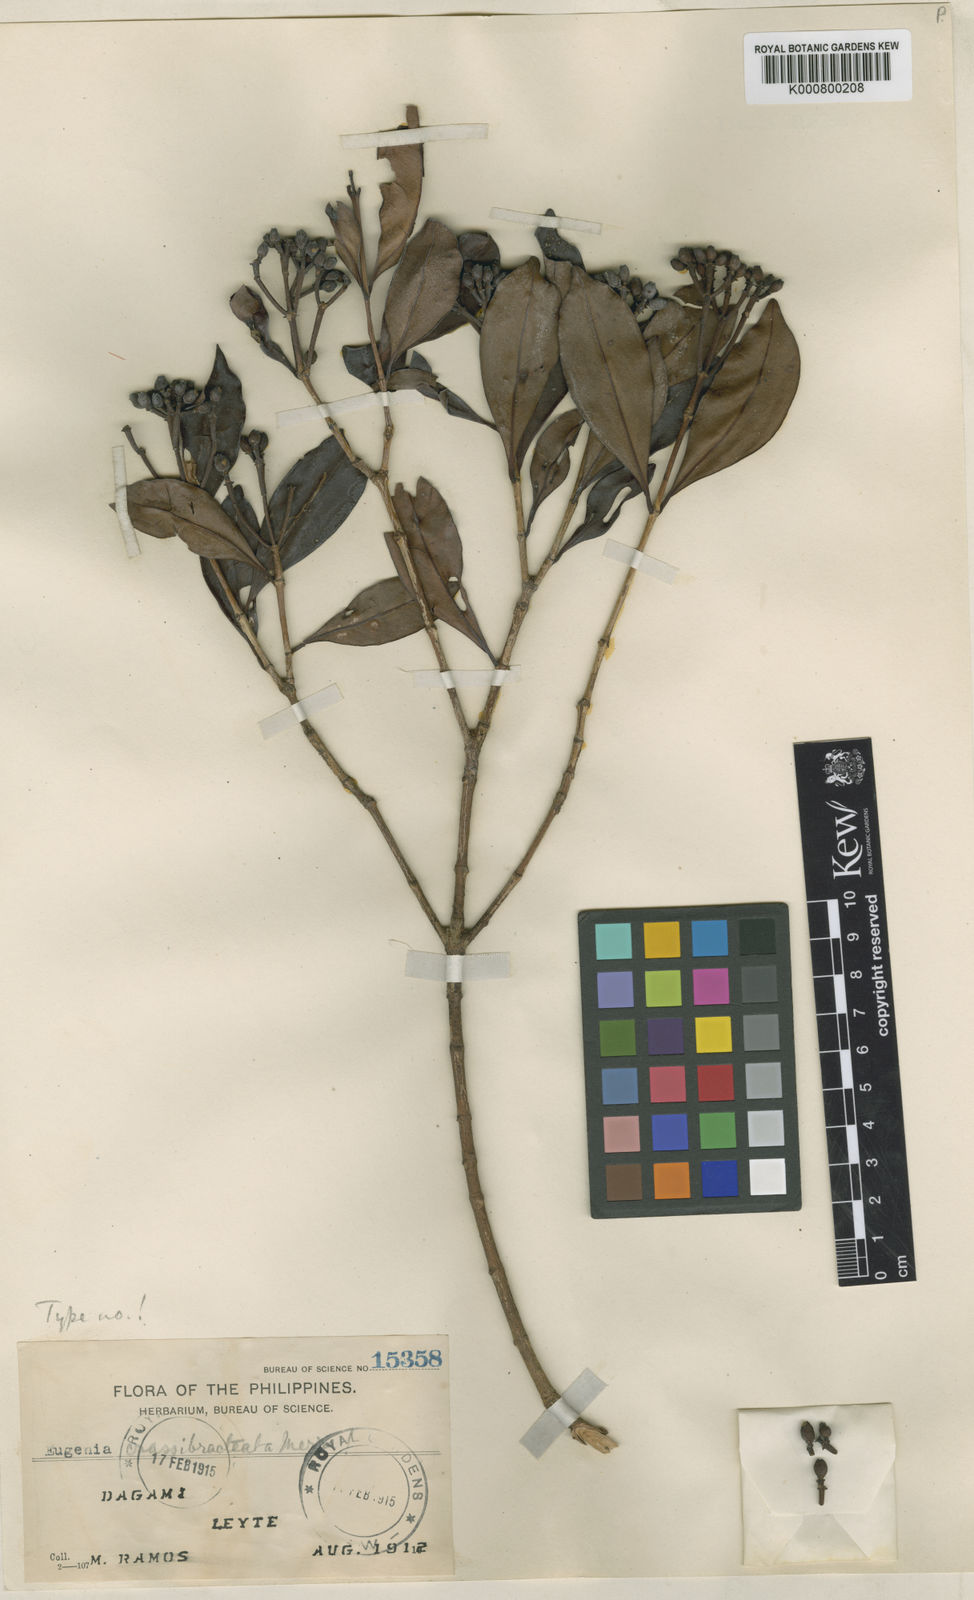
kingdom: Plantae
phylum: Tracheophyta
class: Magnoliopsida
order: Myrtales
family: Myrtaceae
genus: Syzygium
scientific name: Syzygium crassibracteatum
